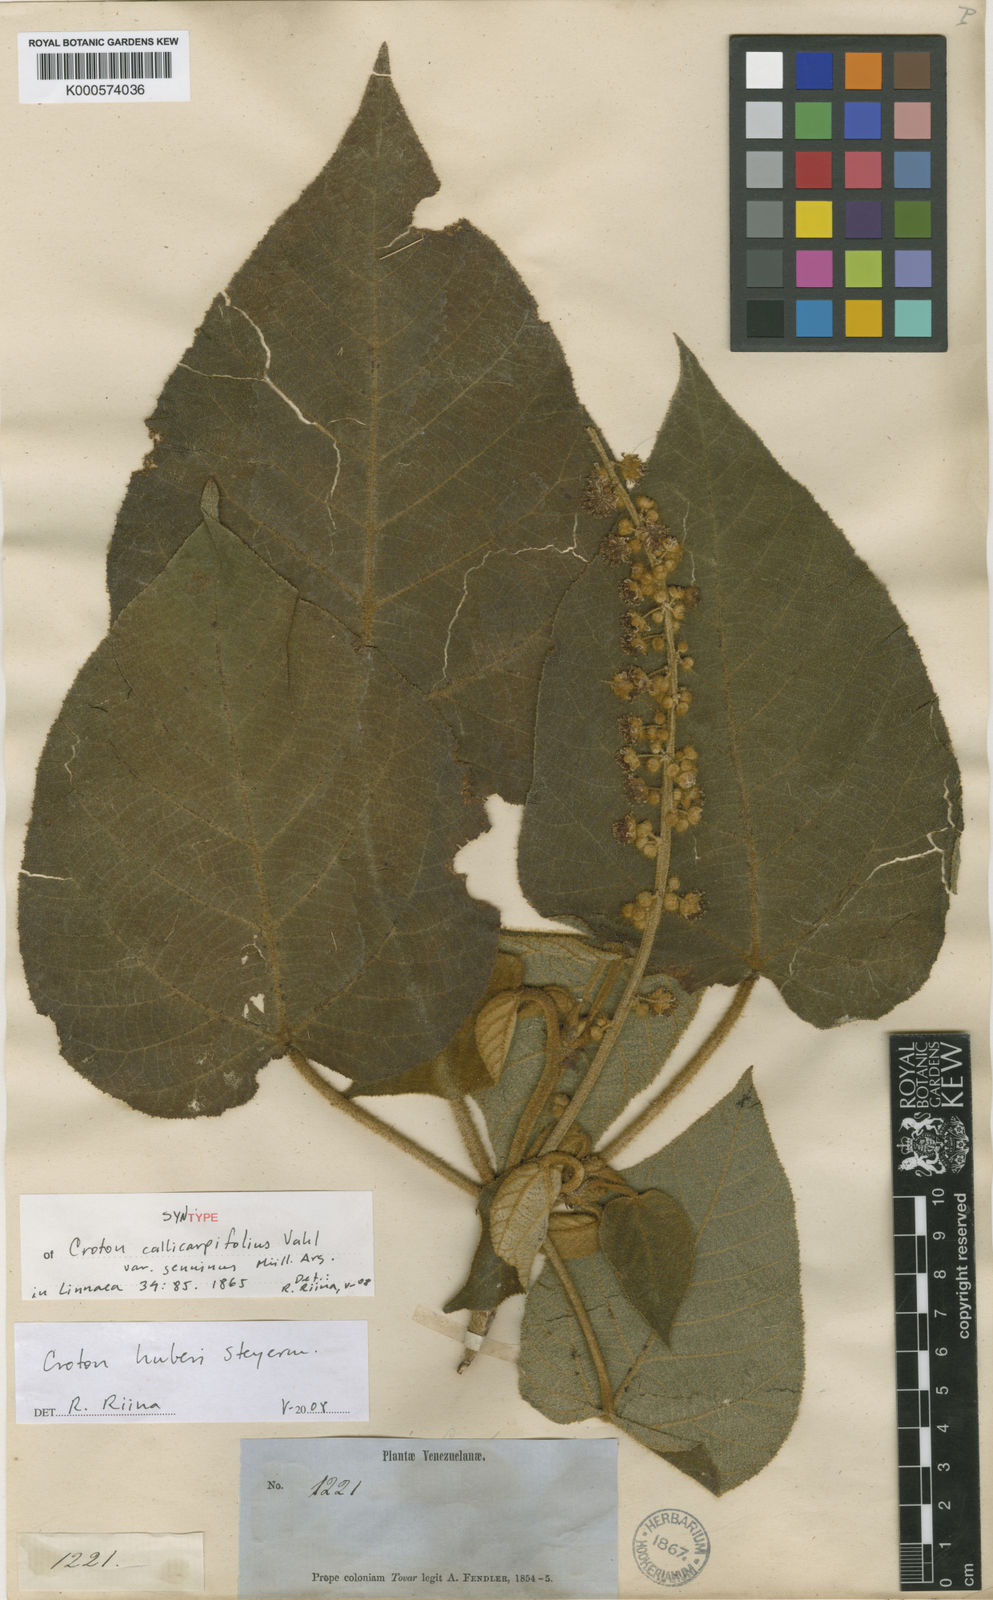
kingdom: Plantae
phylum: Tracheophyta
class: Magnoliopsida
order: Malpighiales
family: Euphorbiaceae
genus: Croton
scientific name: Croton huberi
